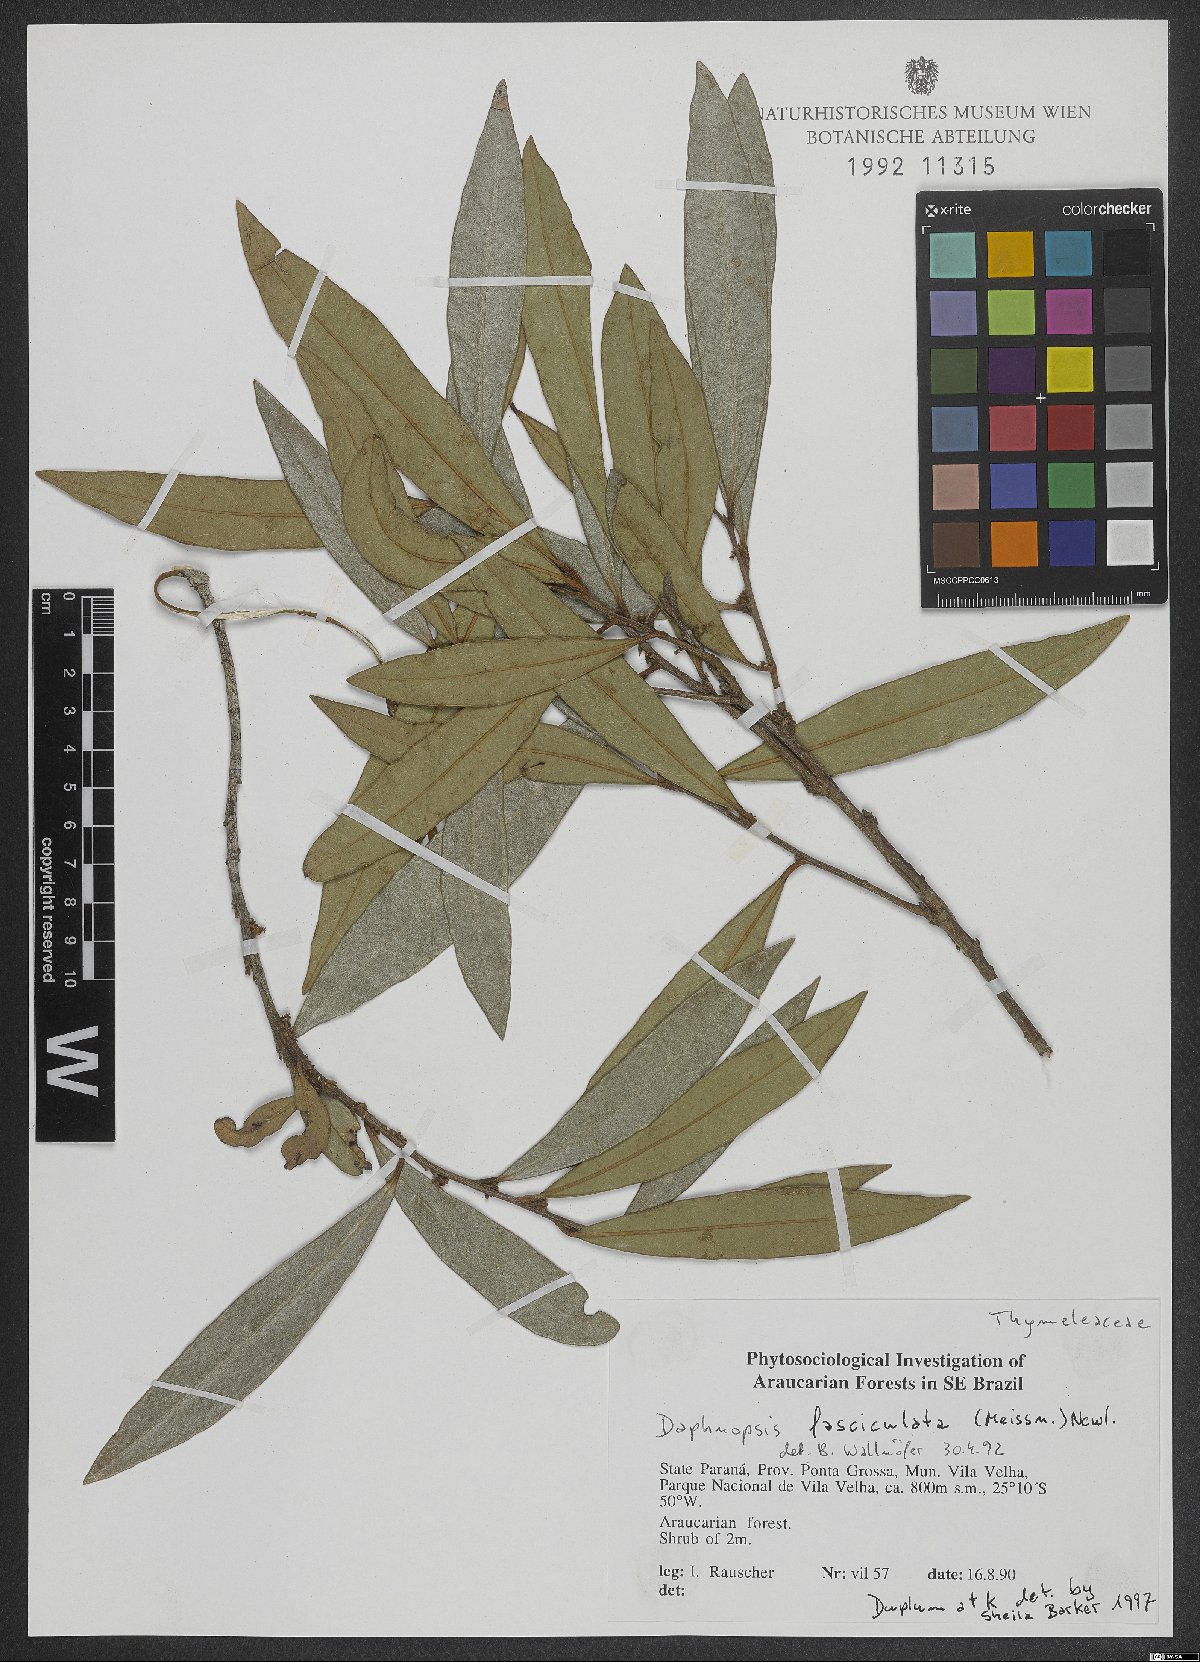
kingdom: Plantae
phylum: Tracheophyta
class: Magnoliopsida
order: Malvales
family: Thymelaeaceae
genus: Daphnopsis
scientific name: Daphnopsis fasciculata
